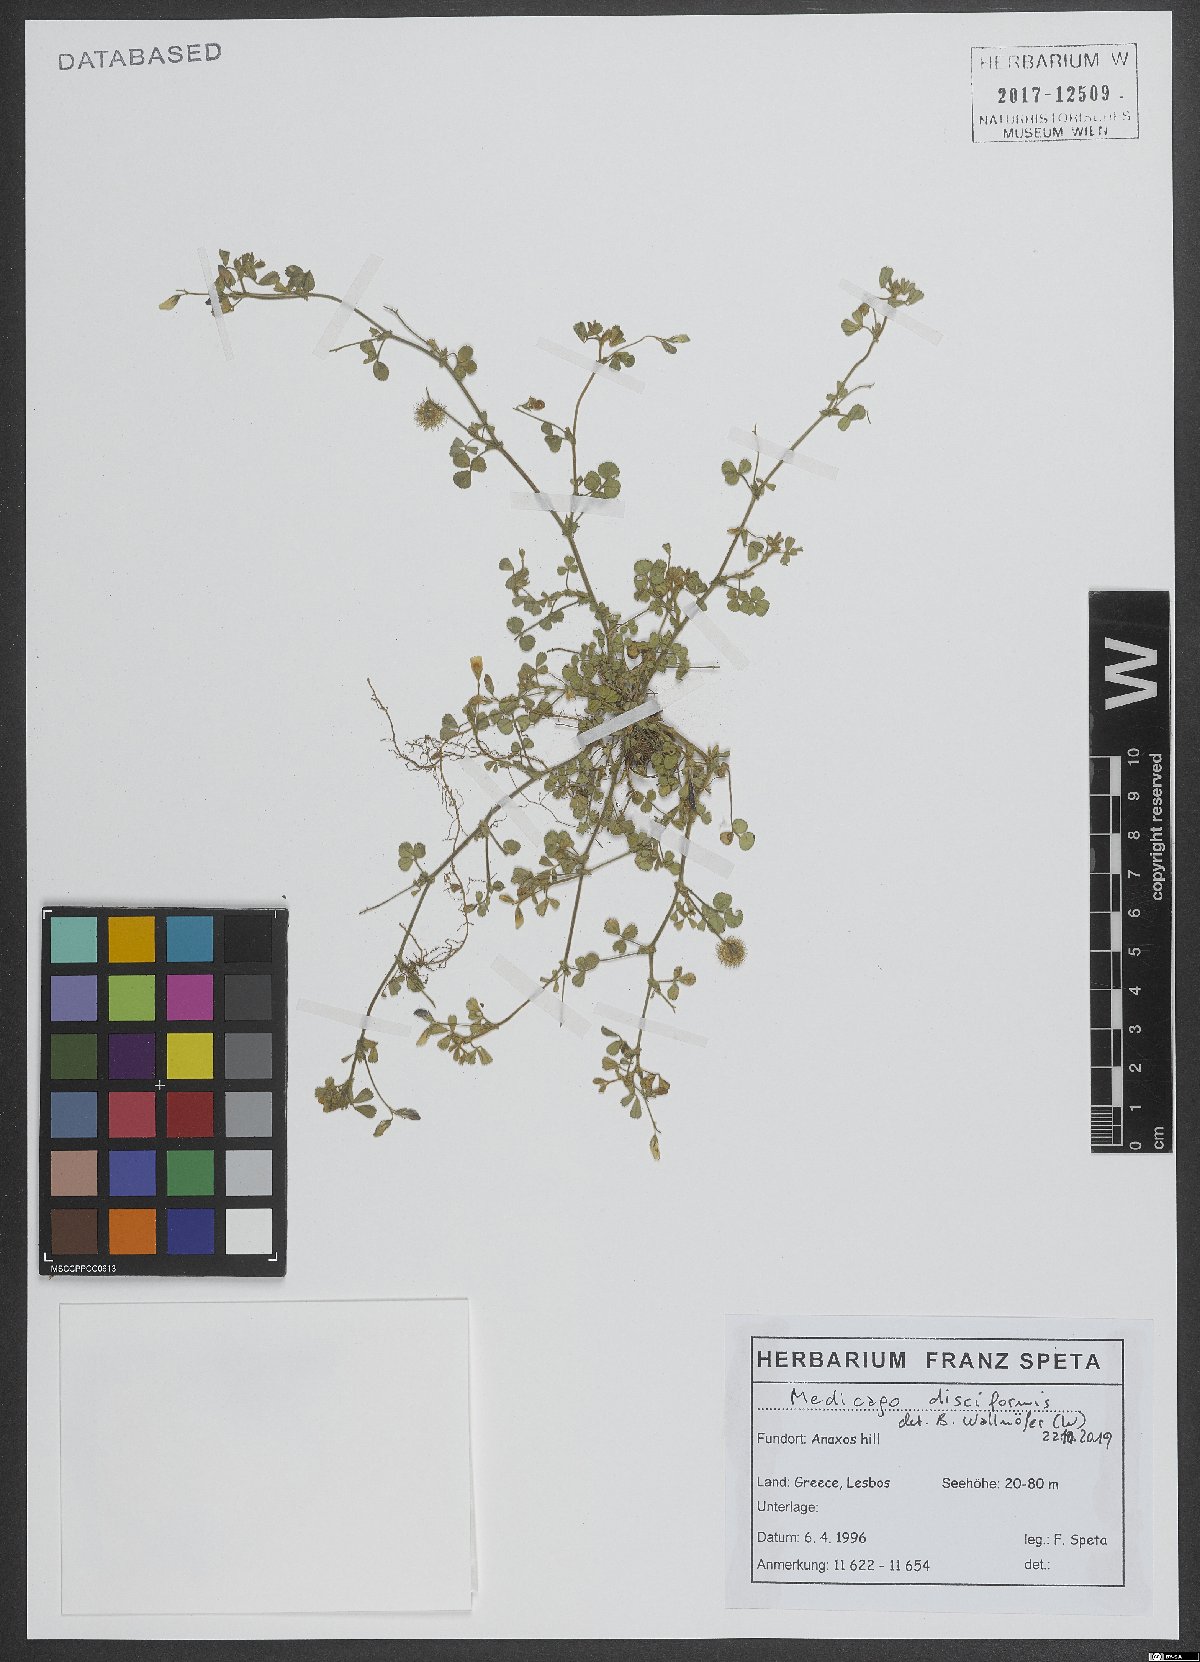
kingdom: Plantae
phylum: Tracheophyta
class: Magnoliopsida
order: Fabales
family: Fabaceae
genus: Medicago
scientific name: Medicago disciformis
